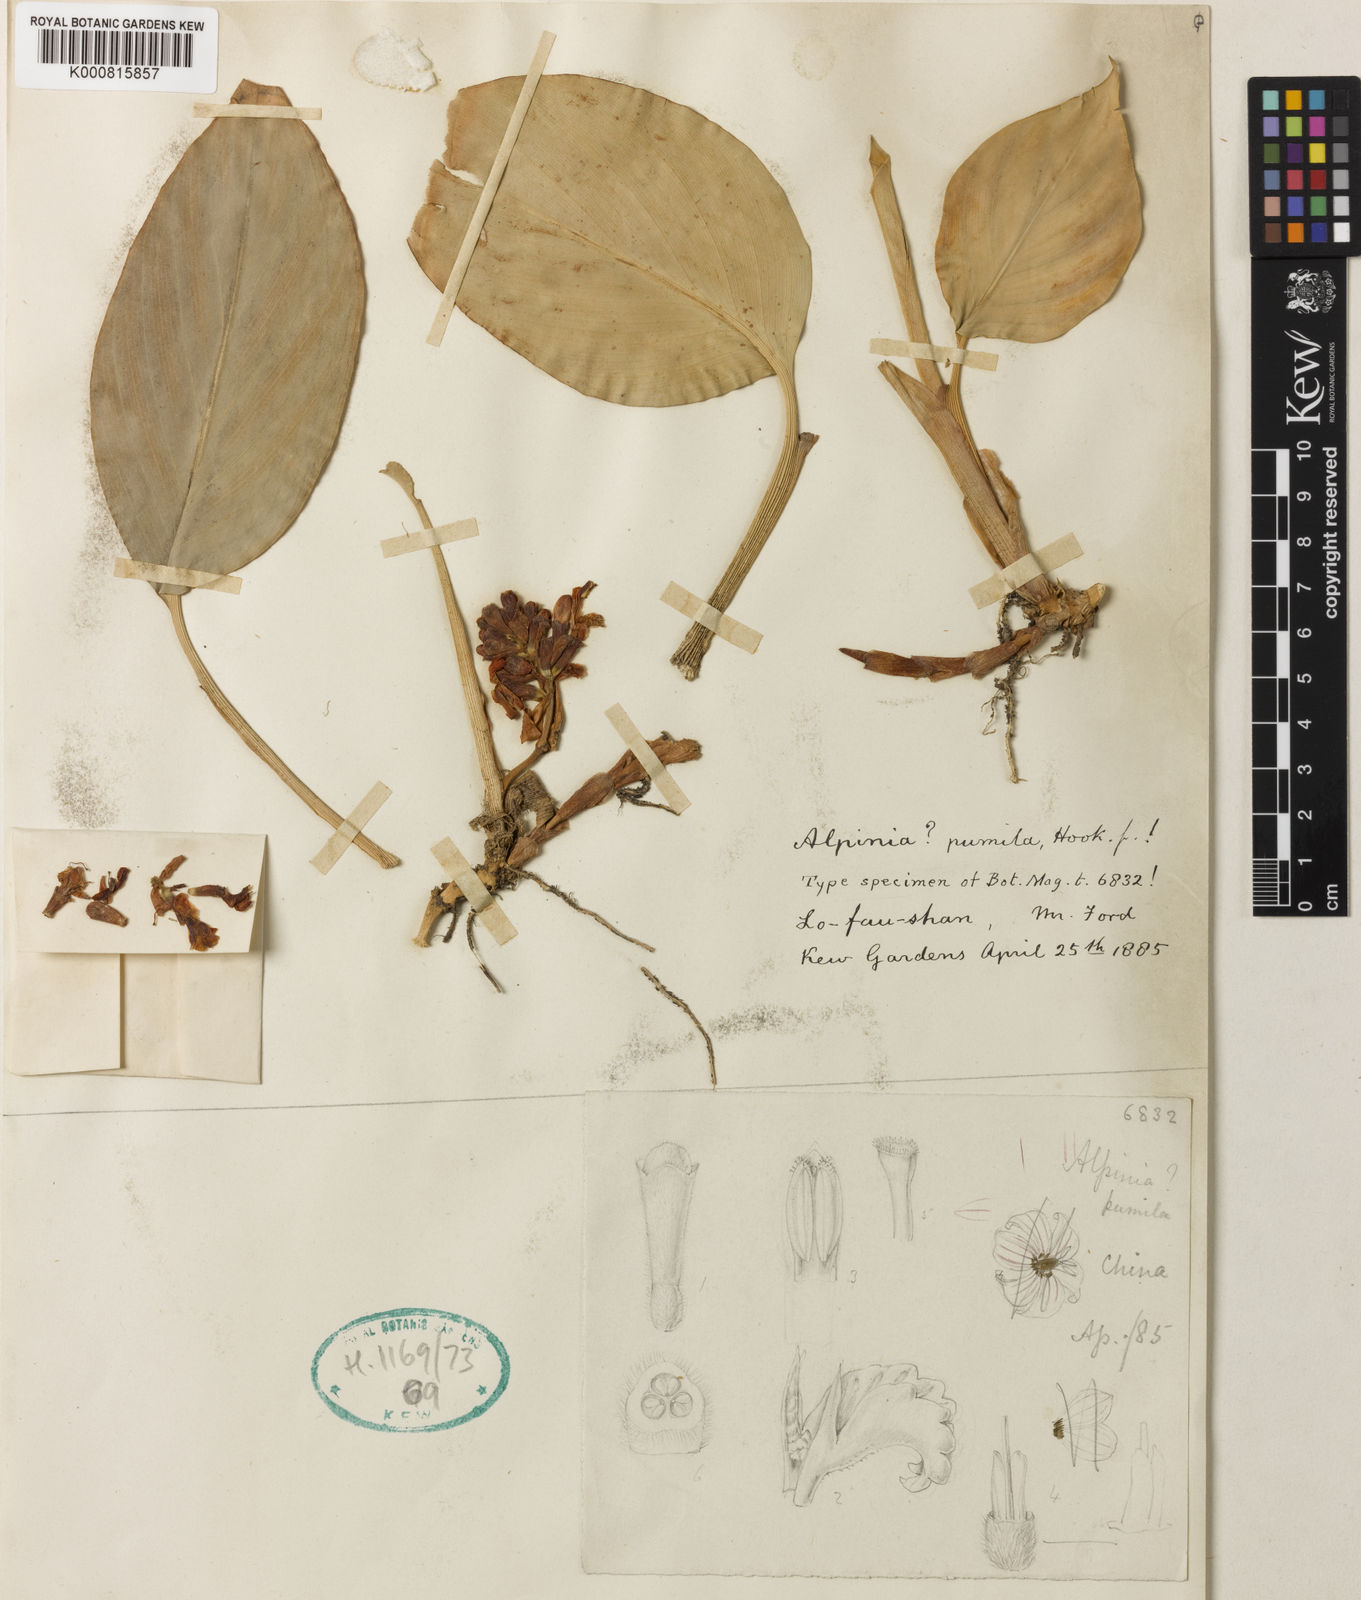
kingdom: Plantae
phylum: Tracheophyta
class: Liliopsida
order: Zingiberales
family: Zingiberaceae
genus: Alpinia
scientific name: Alpinia pumila
